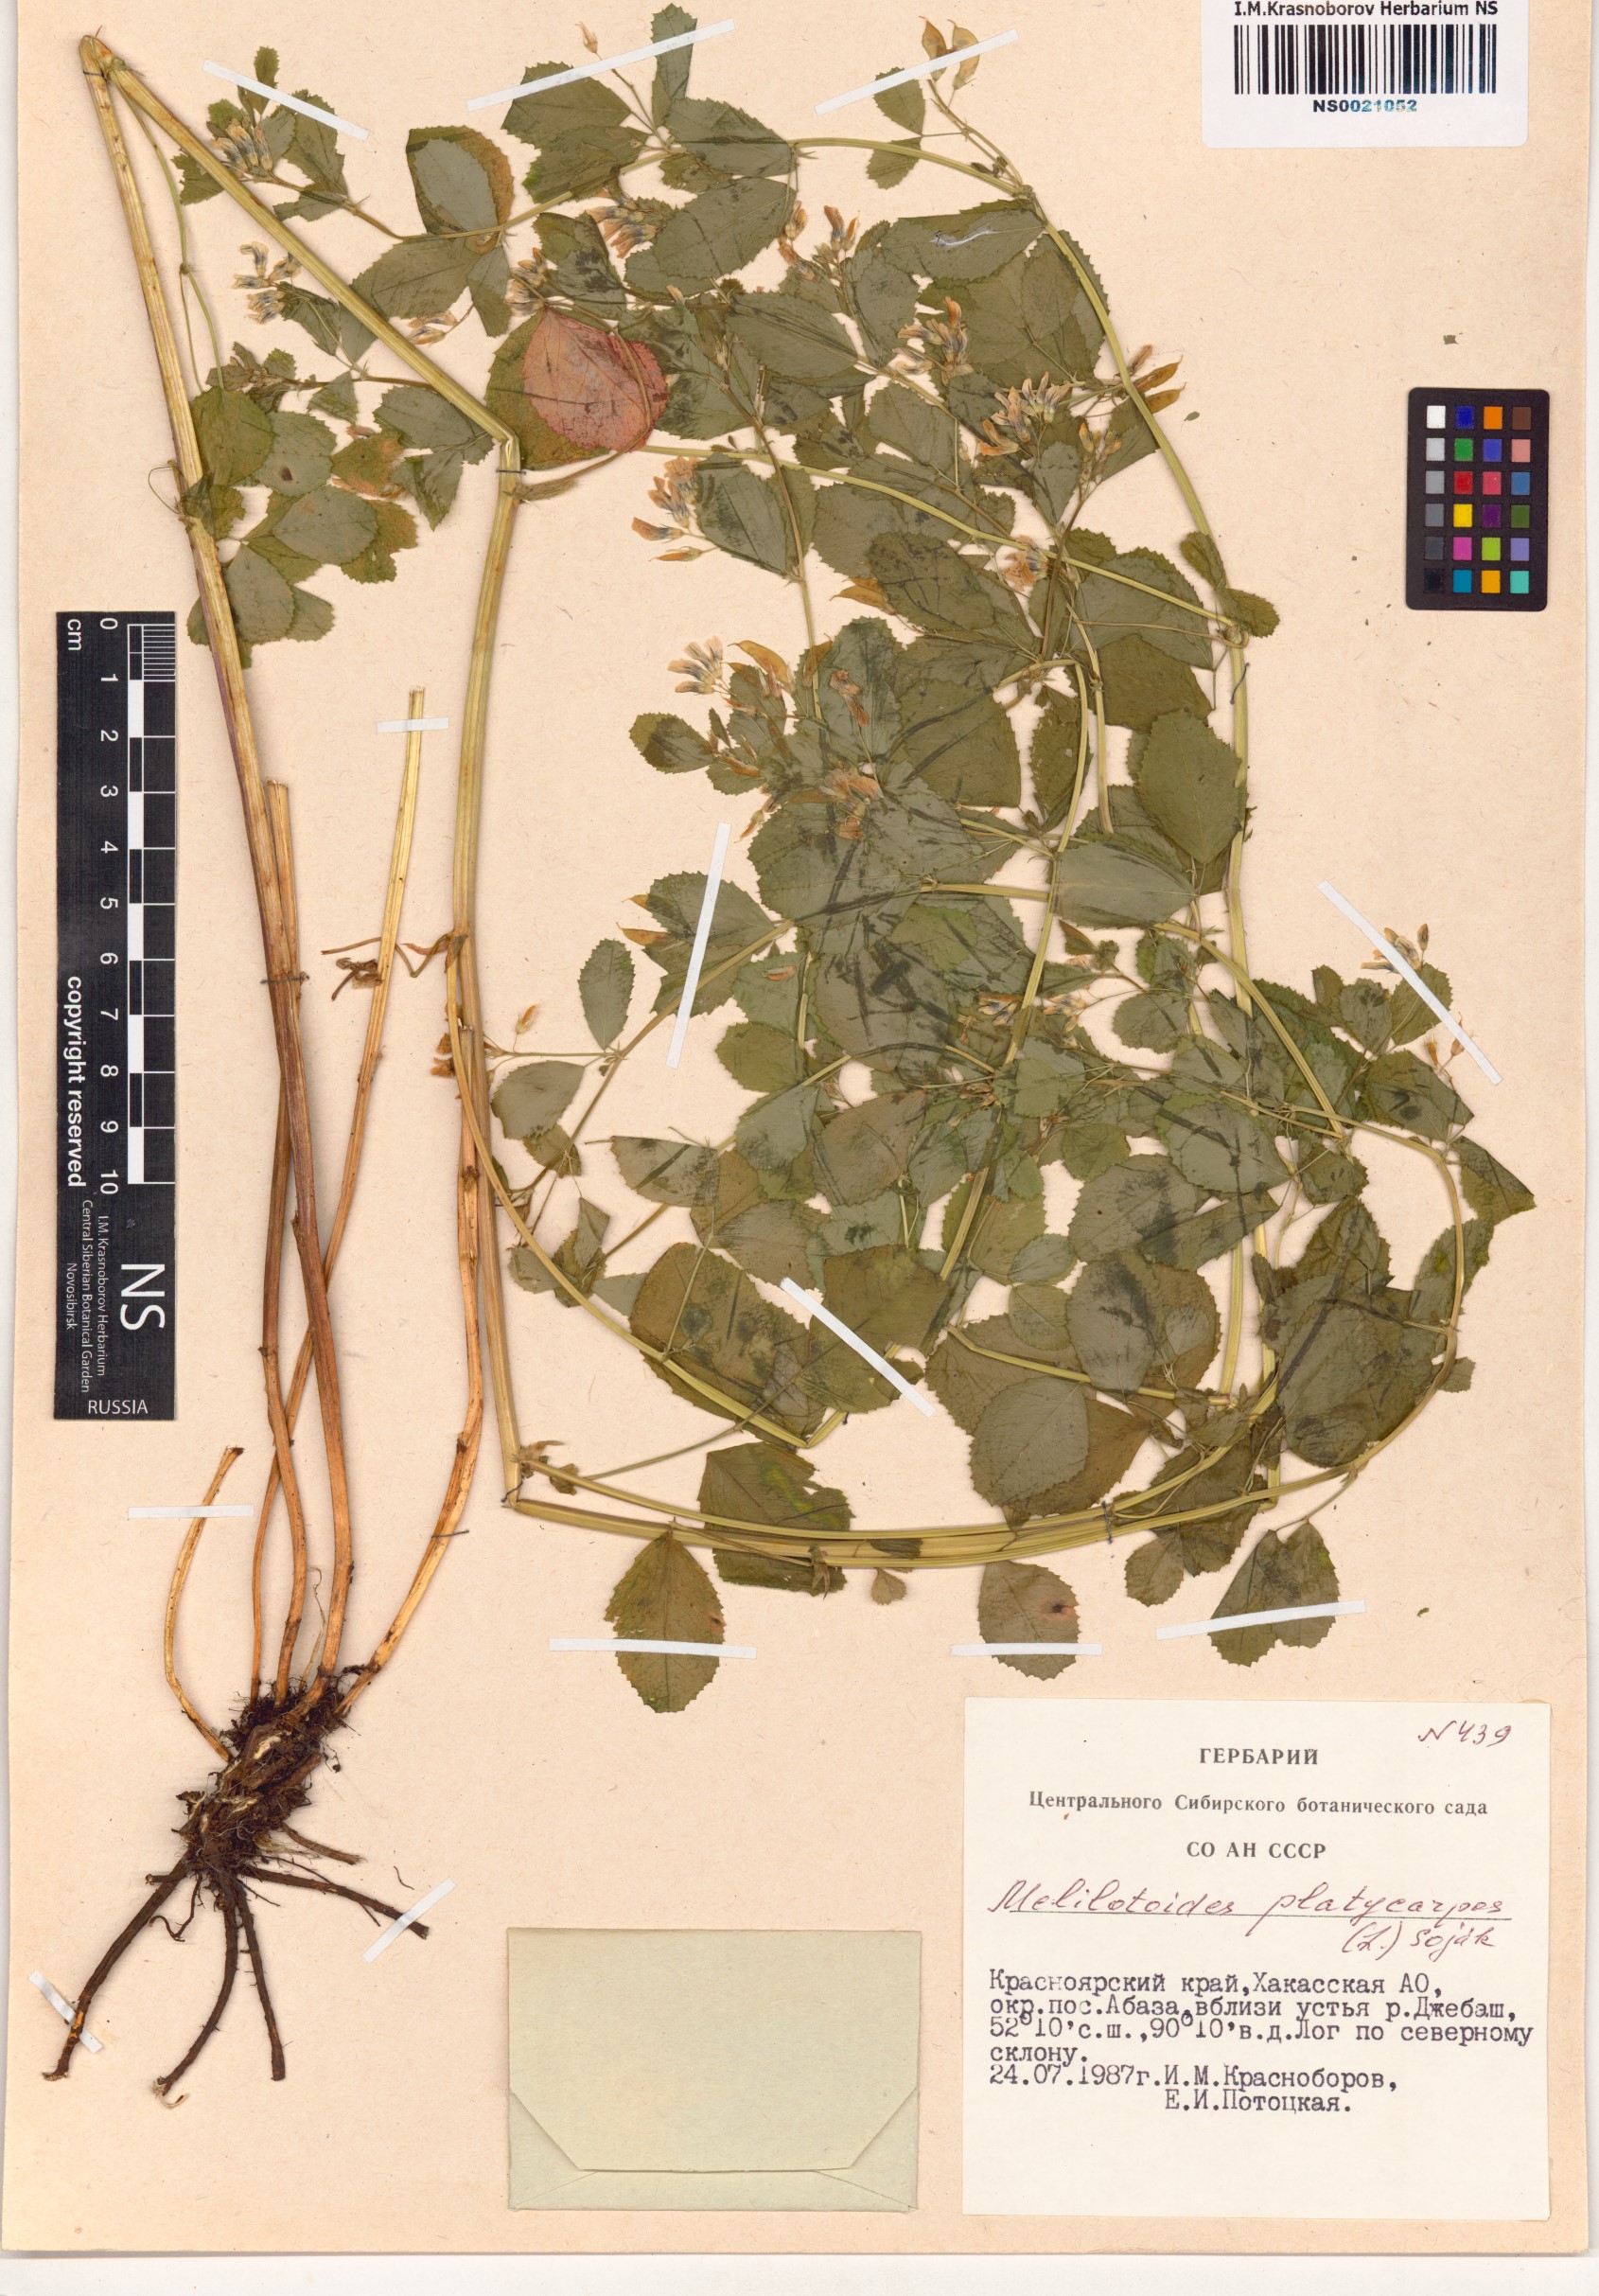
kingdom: Plantae
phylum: Tracheophyta
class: Magnoliopsida
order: Fabales
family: Fabaceae
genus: Medicago
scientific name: Medicago platycarpos
